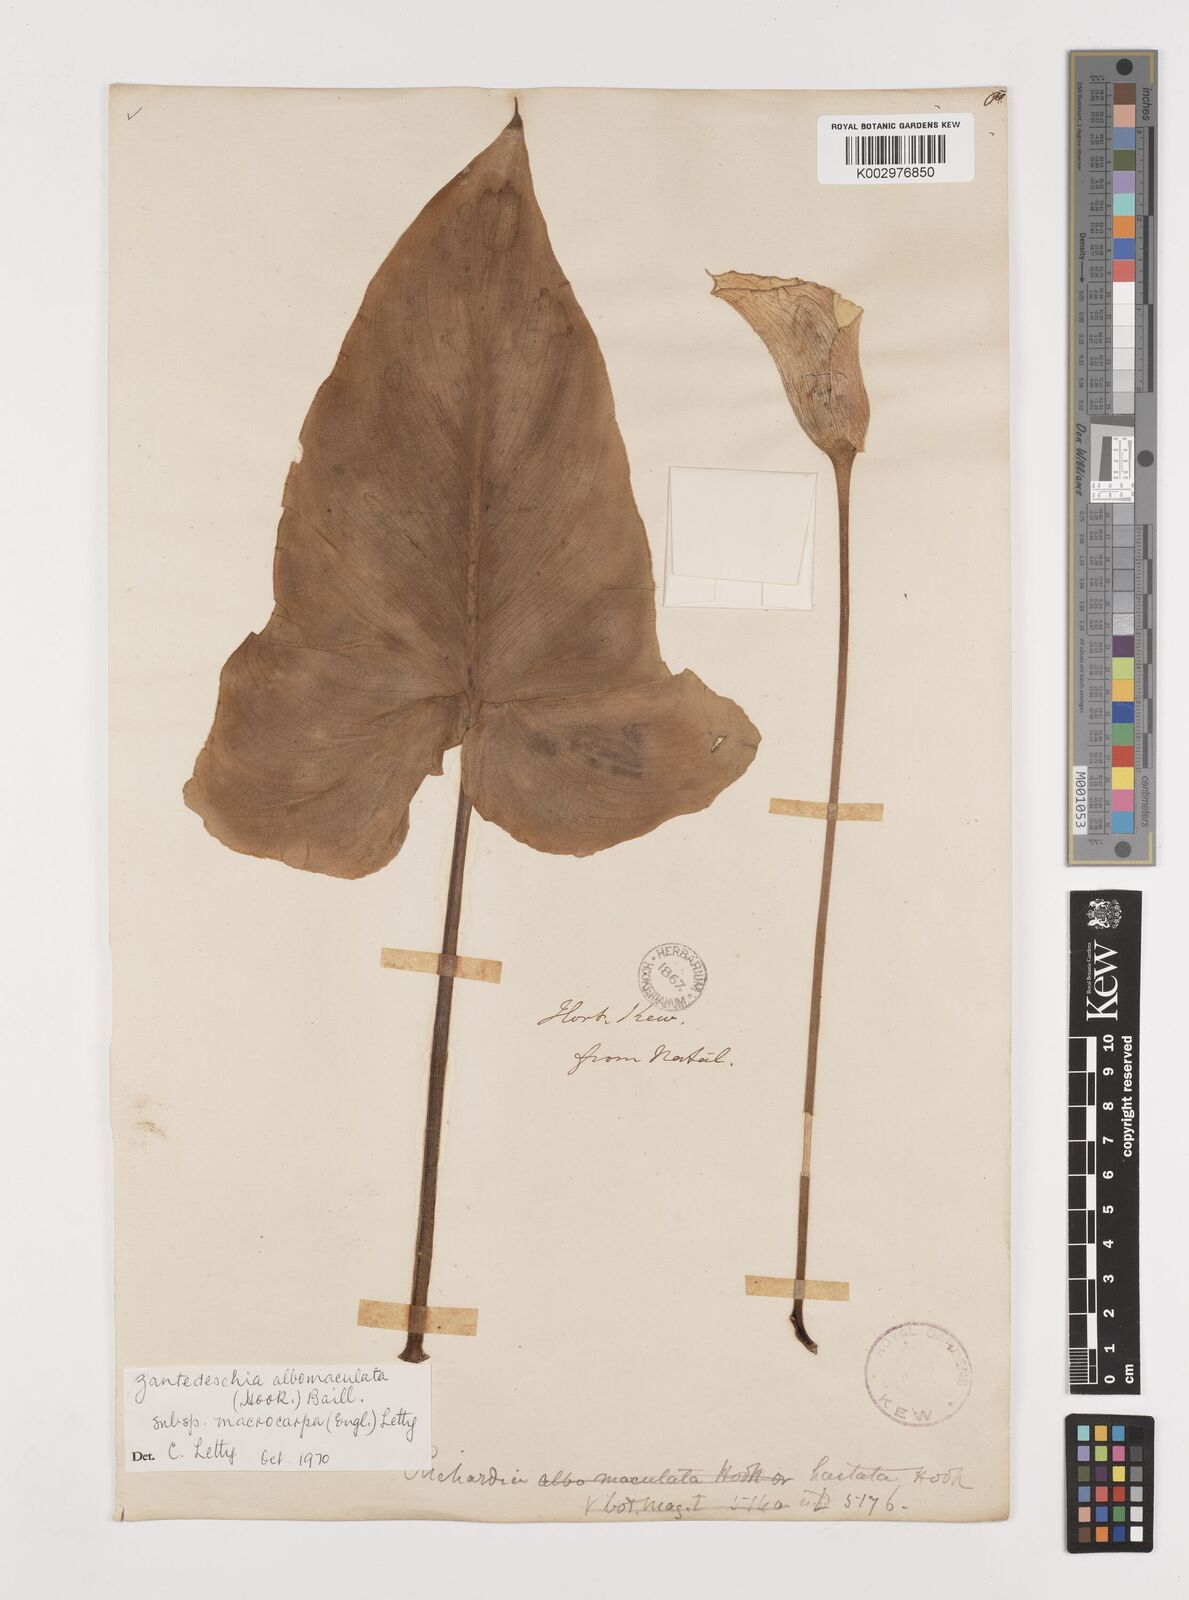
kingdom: Plantae
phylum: Tracheophyta
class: Liliopsida
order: Alismatales
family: Araceae
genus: Zantedeschia
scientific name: Zantedeschia albomaculata
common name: Spotted calla lily
